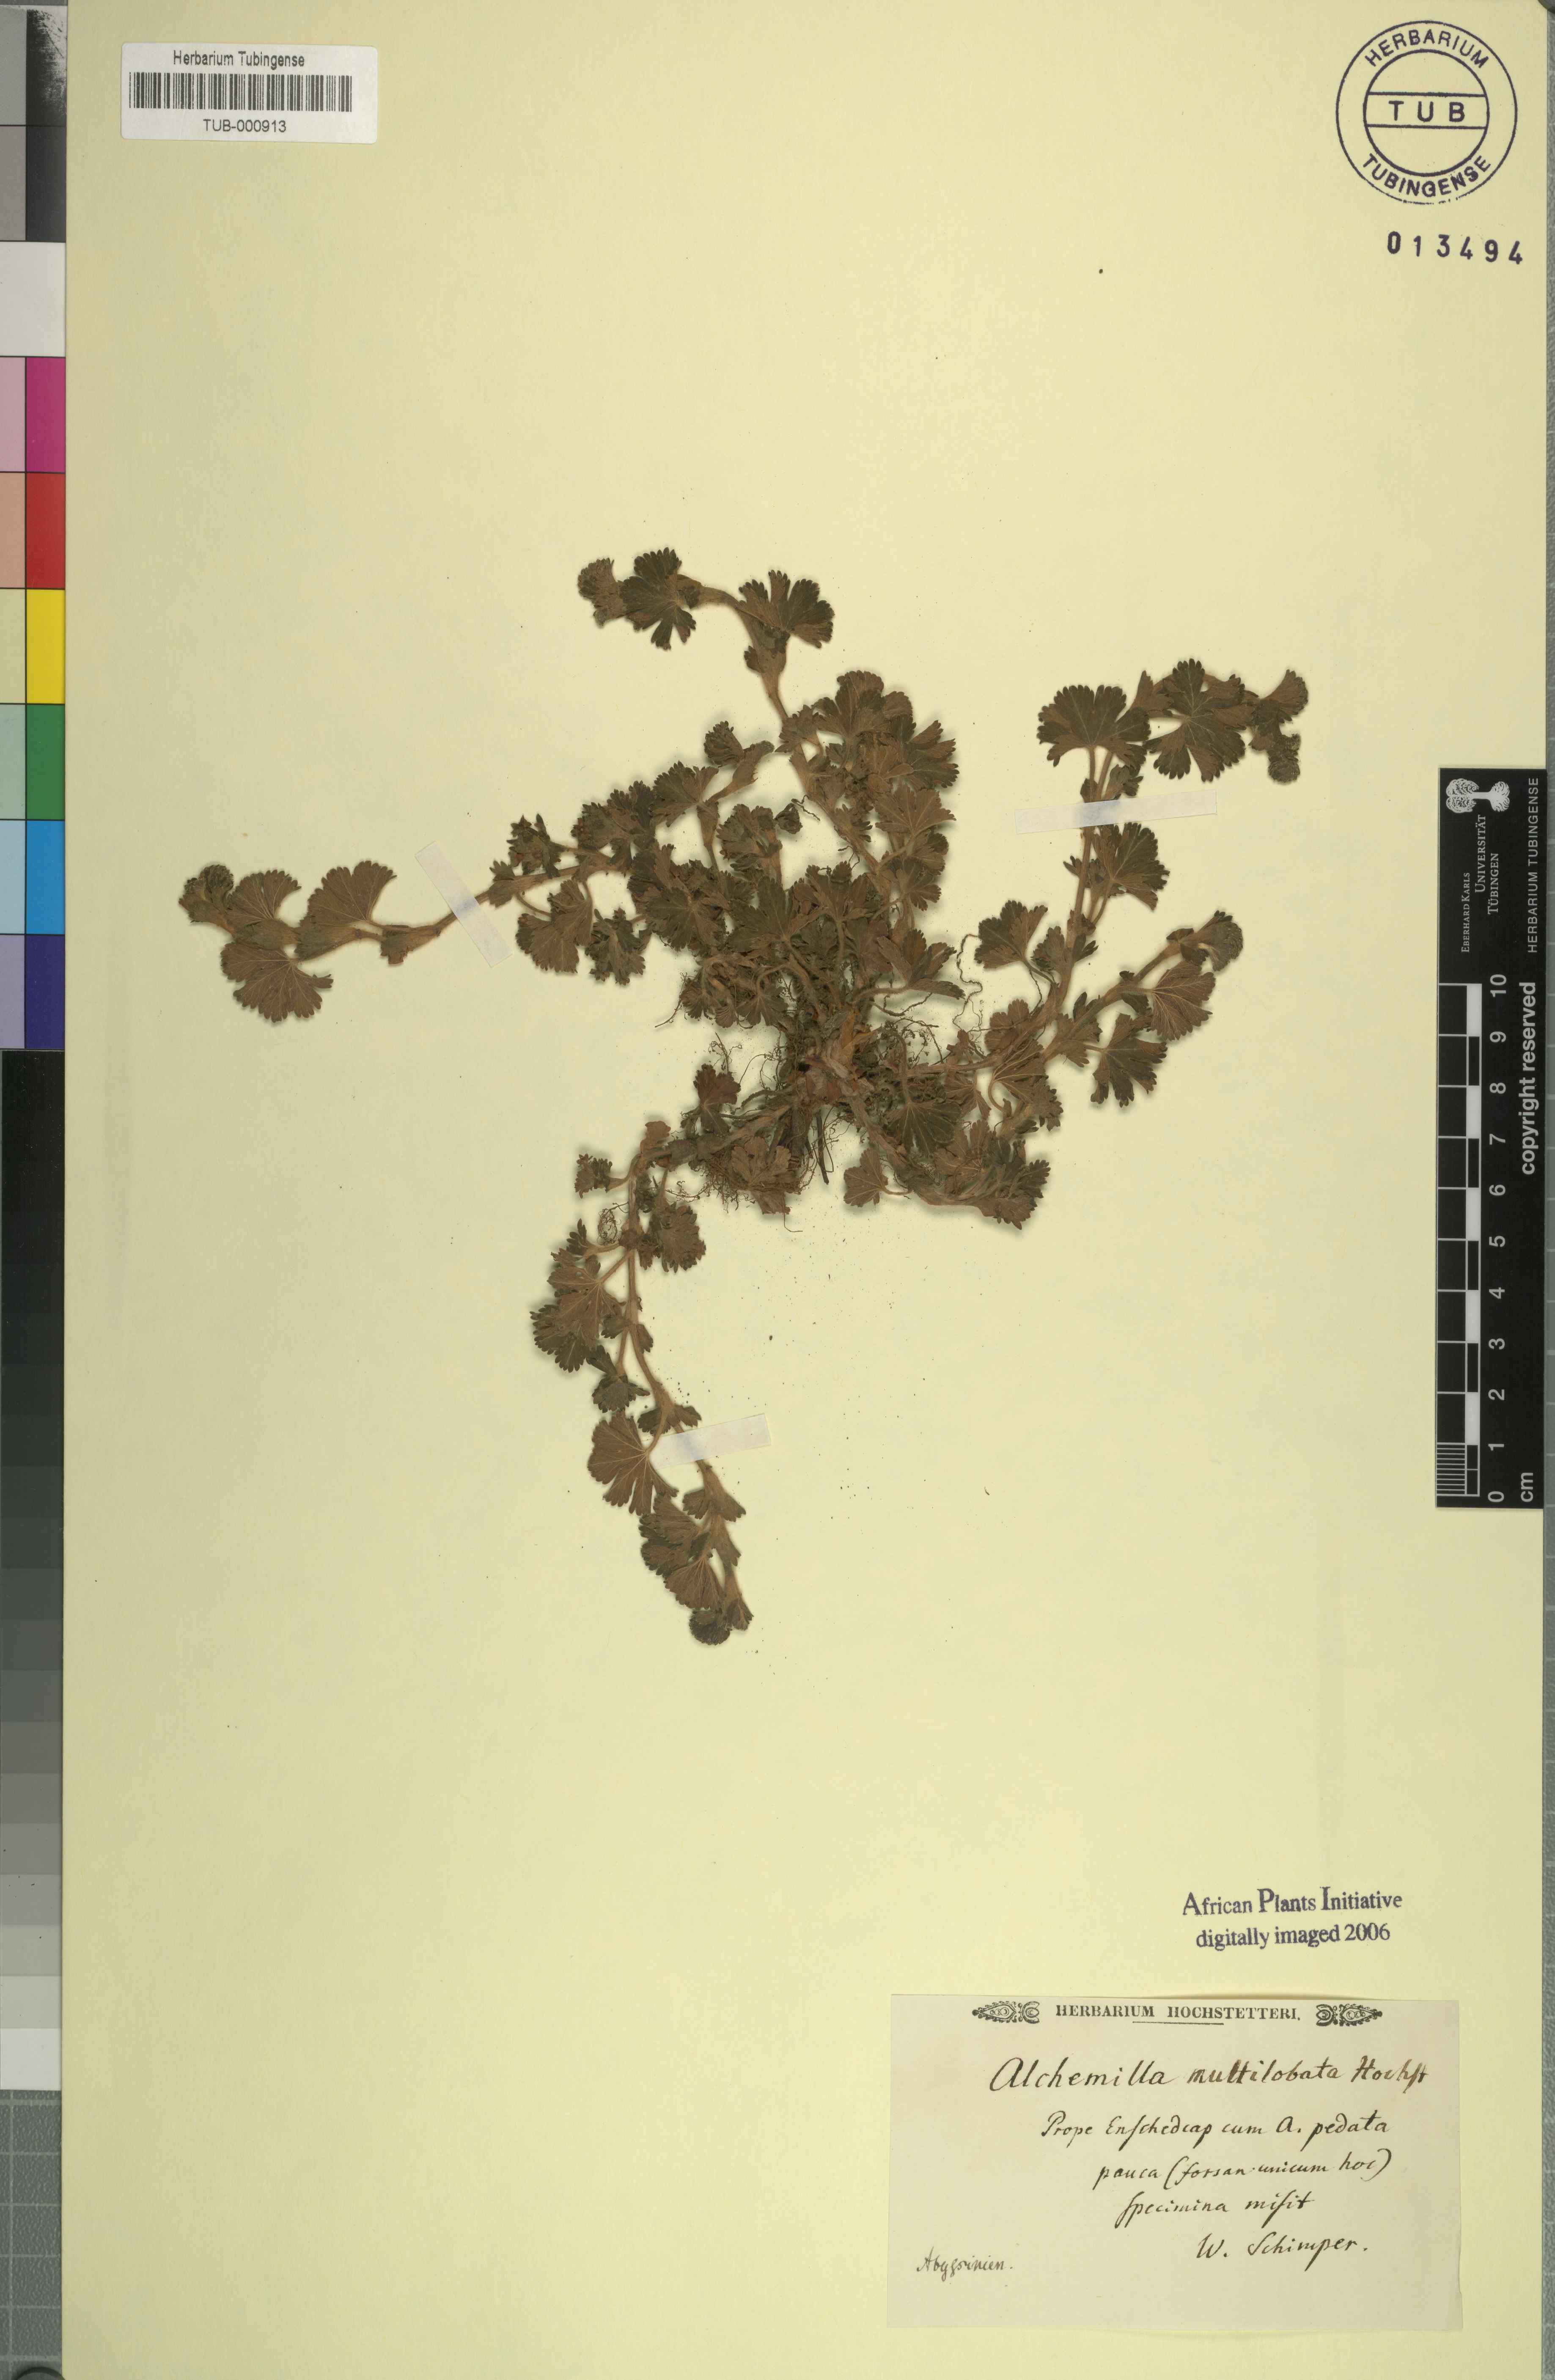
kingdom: Plantae
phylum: Tracheophyta
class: Magnoliopsida
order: Rosales
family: Rosaceae
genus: Alchemilla
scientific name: Alchemilla
